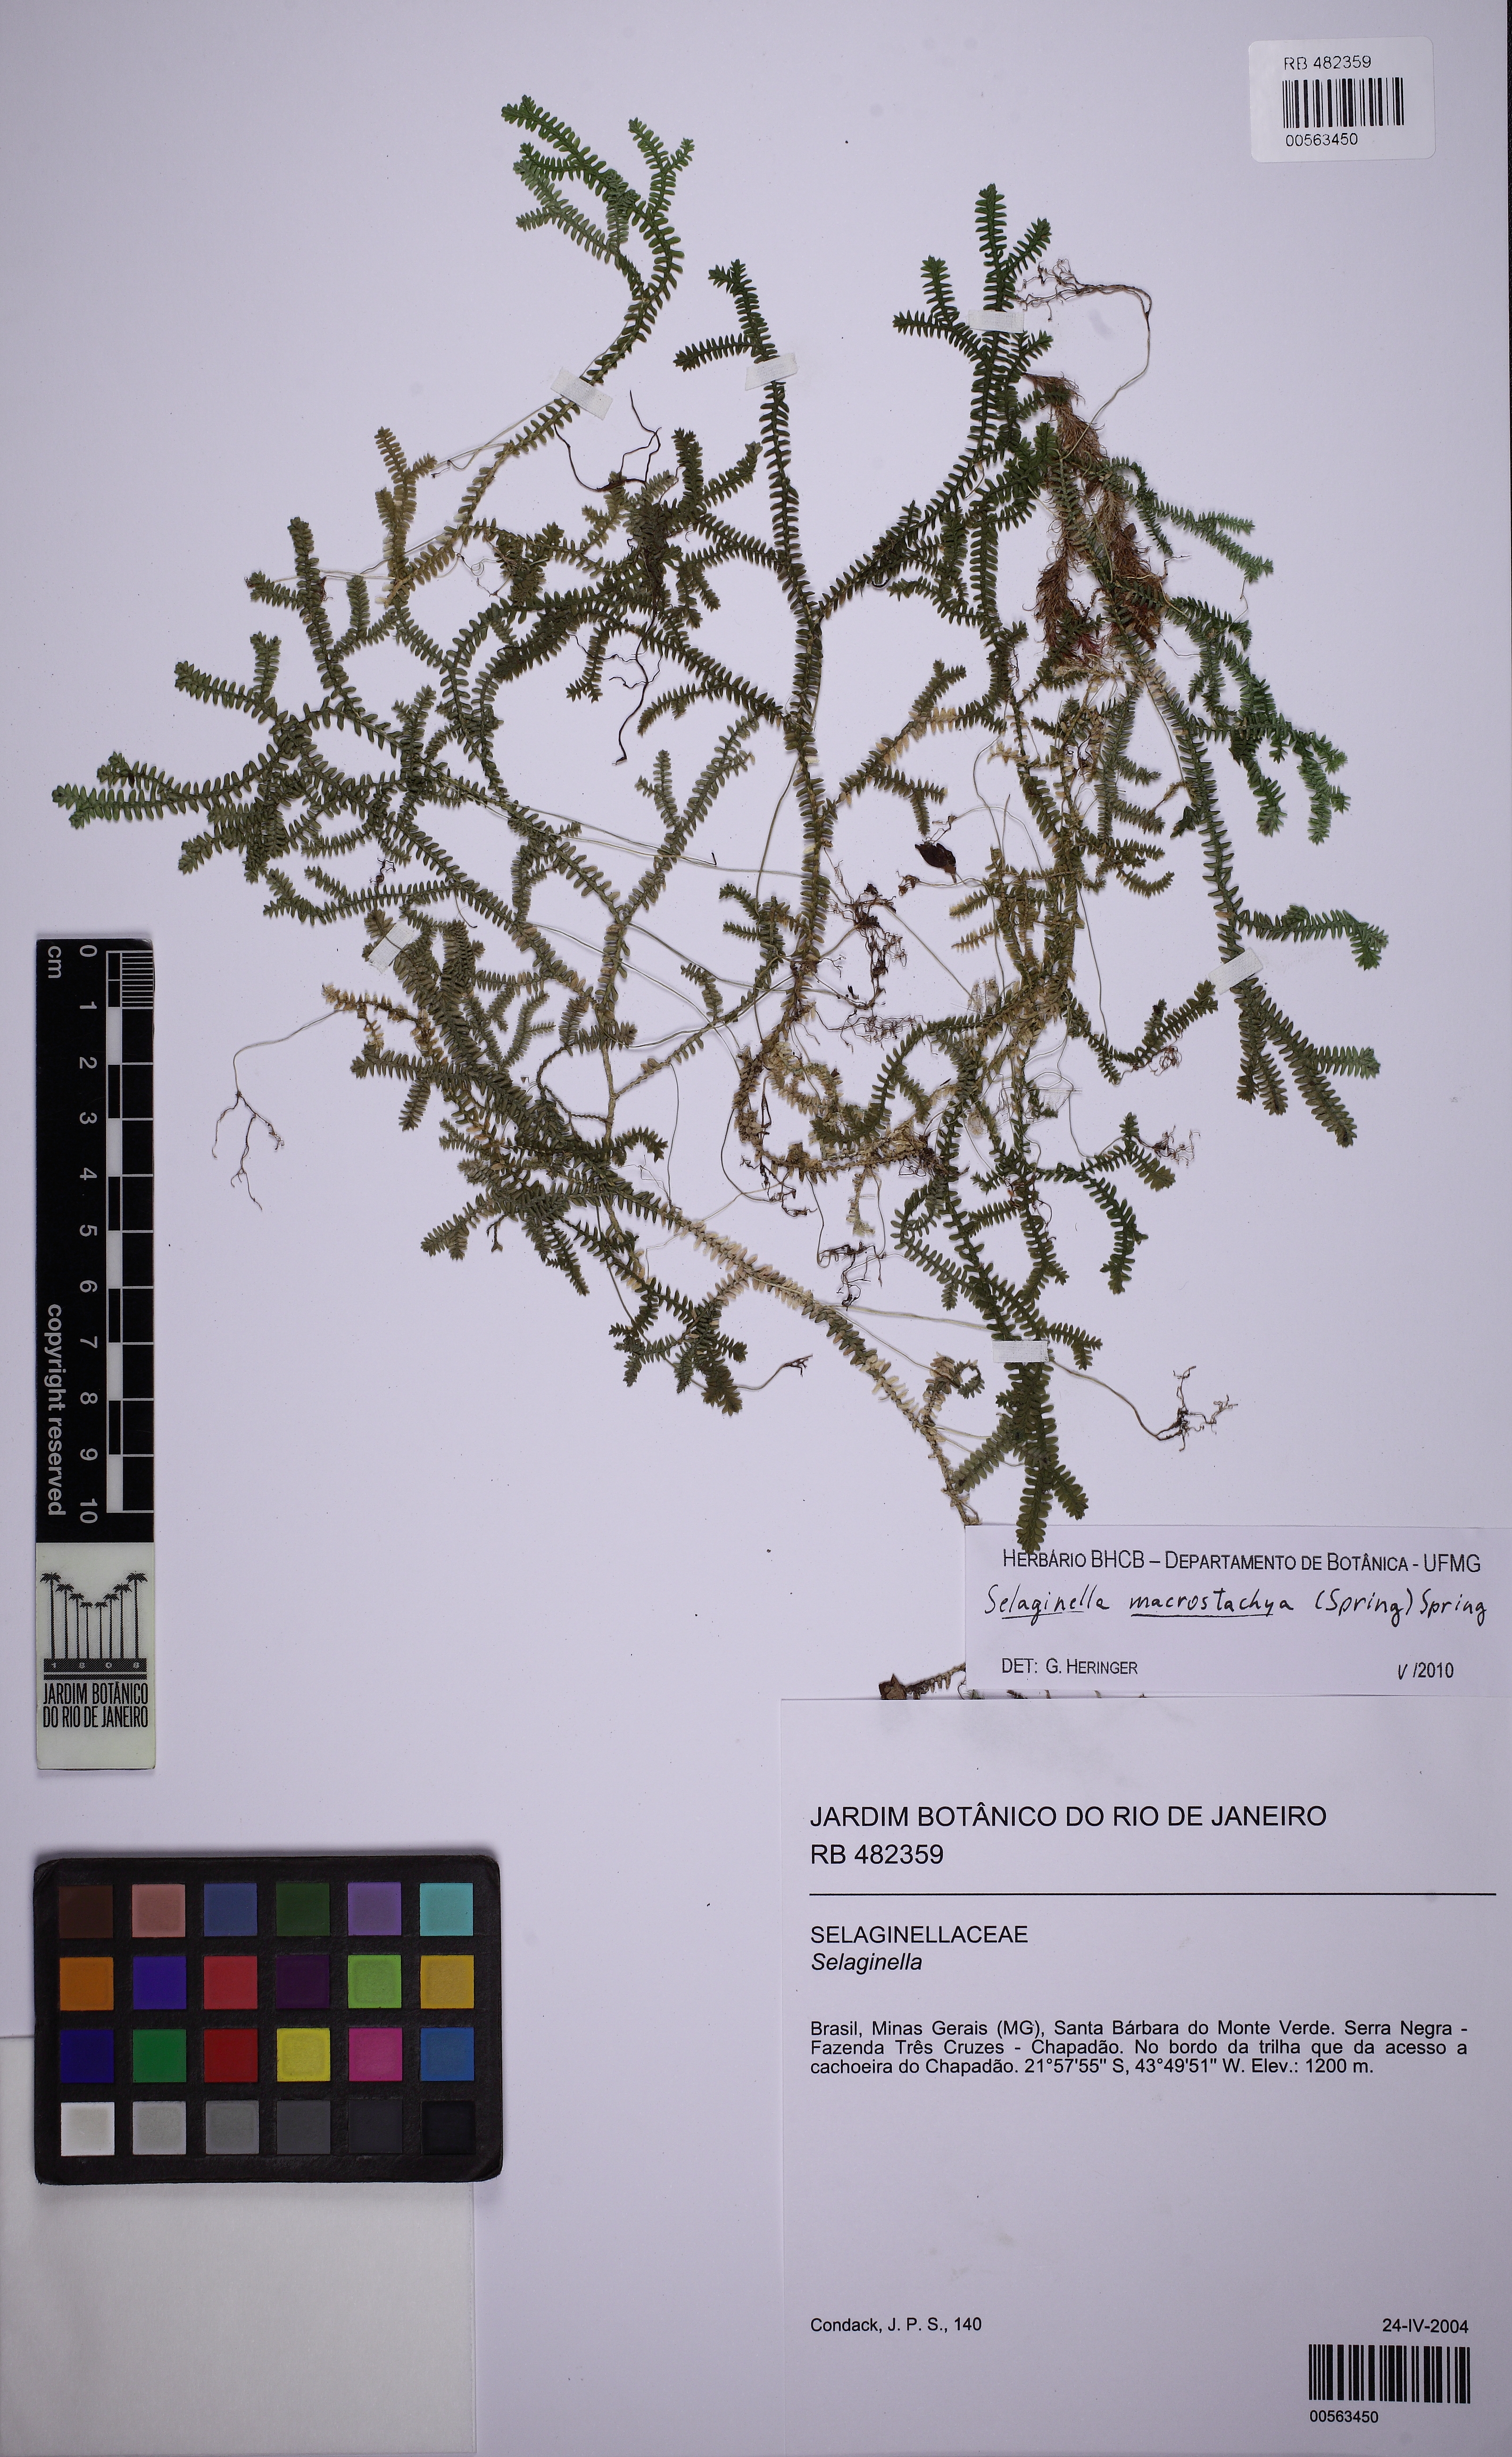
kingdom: Plantae
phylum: Tracheophyta
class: Lycopodiopsida
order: Selaginellales
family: Selaginellaceae
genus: Selaginella
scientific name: Selaginella macrostachya
